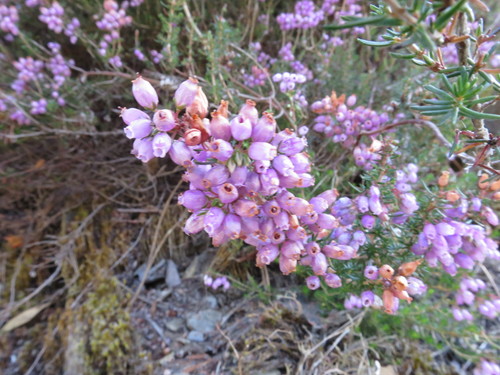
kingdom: Plantae
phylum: Tracheophyta
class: Magnoliopsida
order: Ericales
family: Ericaceae
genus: Erica
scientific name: Erica cinerea
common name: Bell heather
